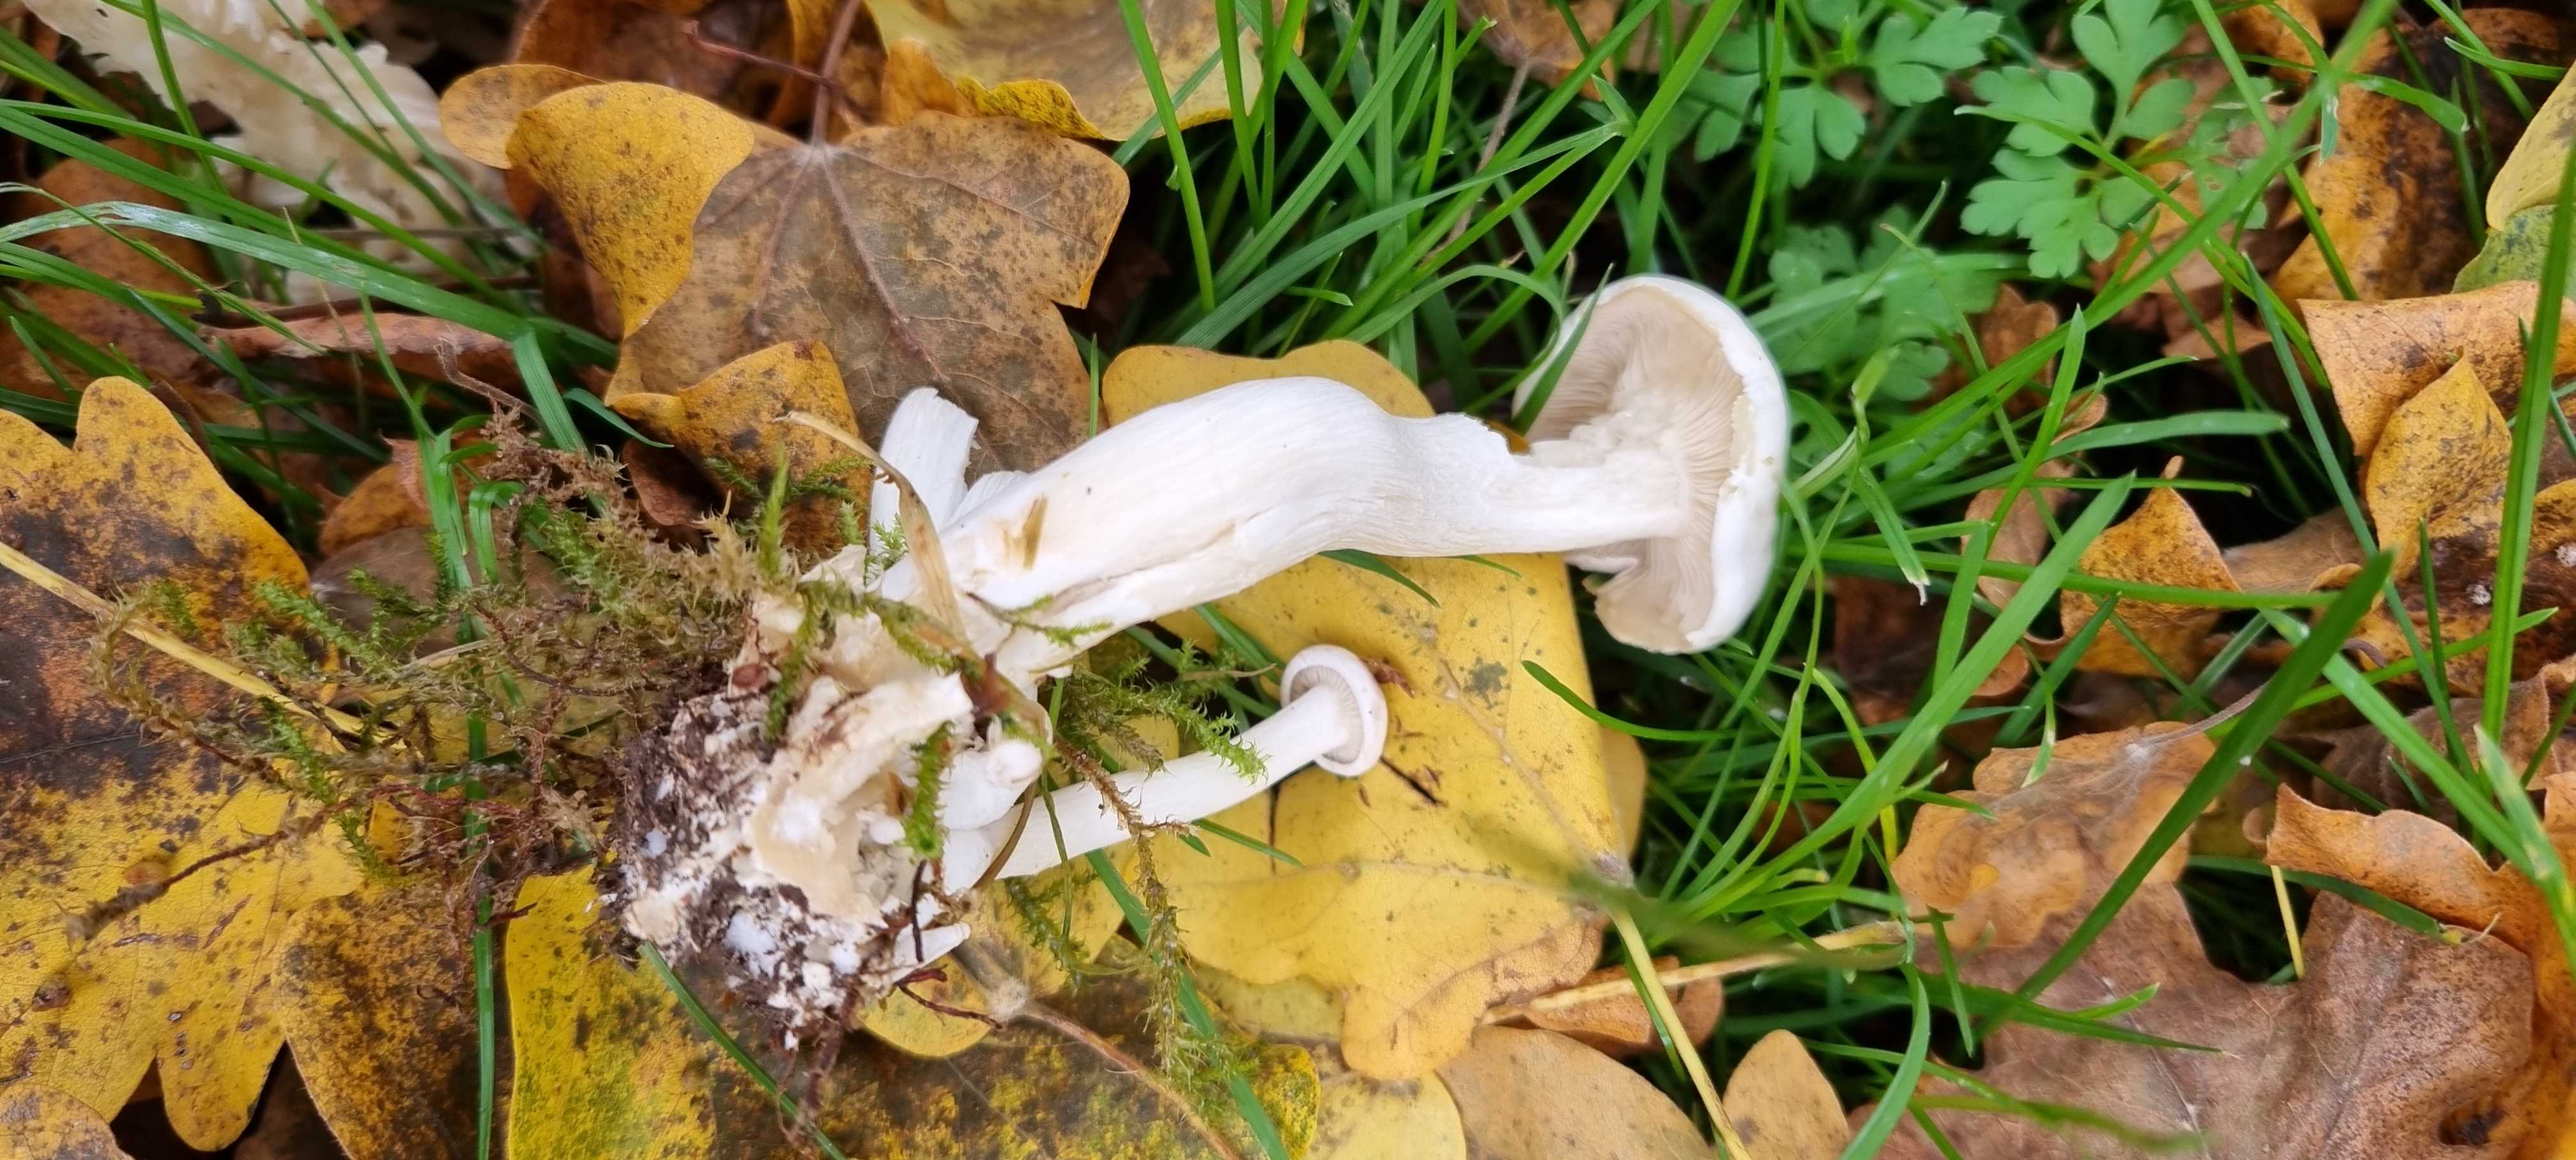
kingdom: Fungi
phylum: Basidiomycota
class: Agaricomycetes
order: Agaricales
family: Tricholomataceae
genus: Leucocybe
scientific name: Leucocybe connata
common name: knippe-tragthat
